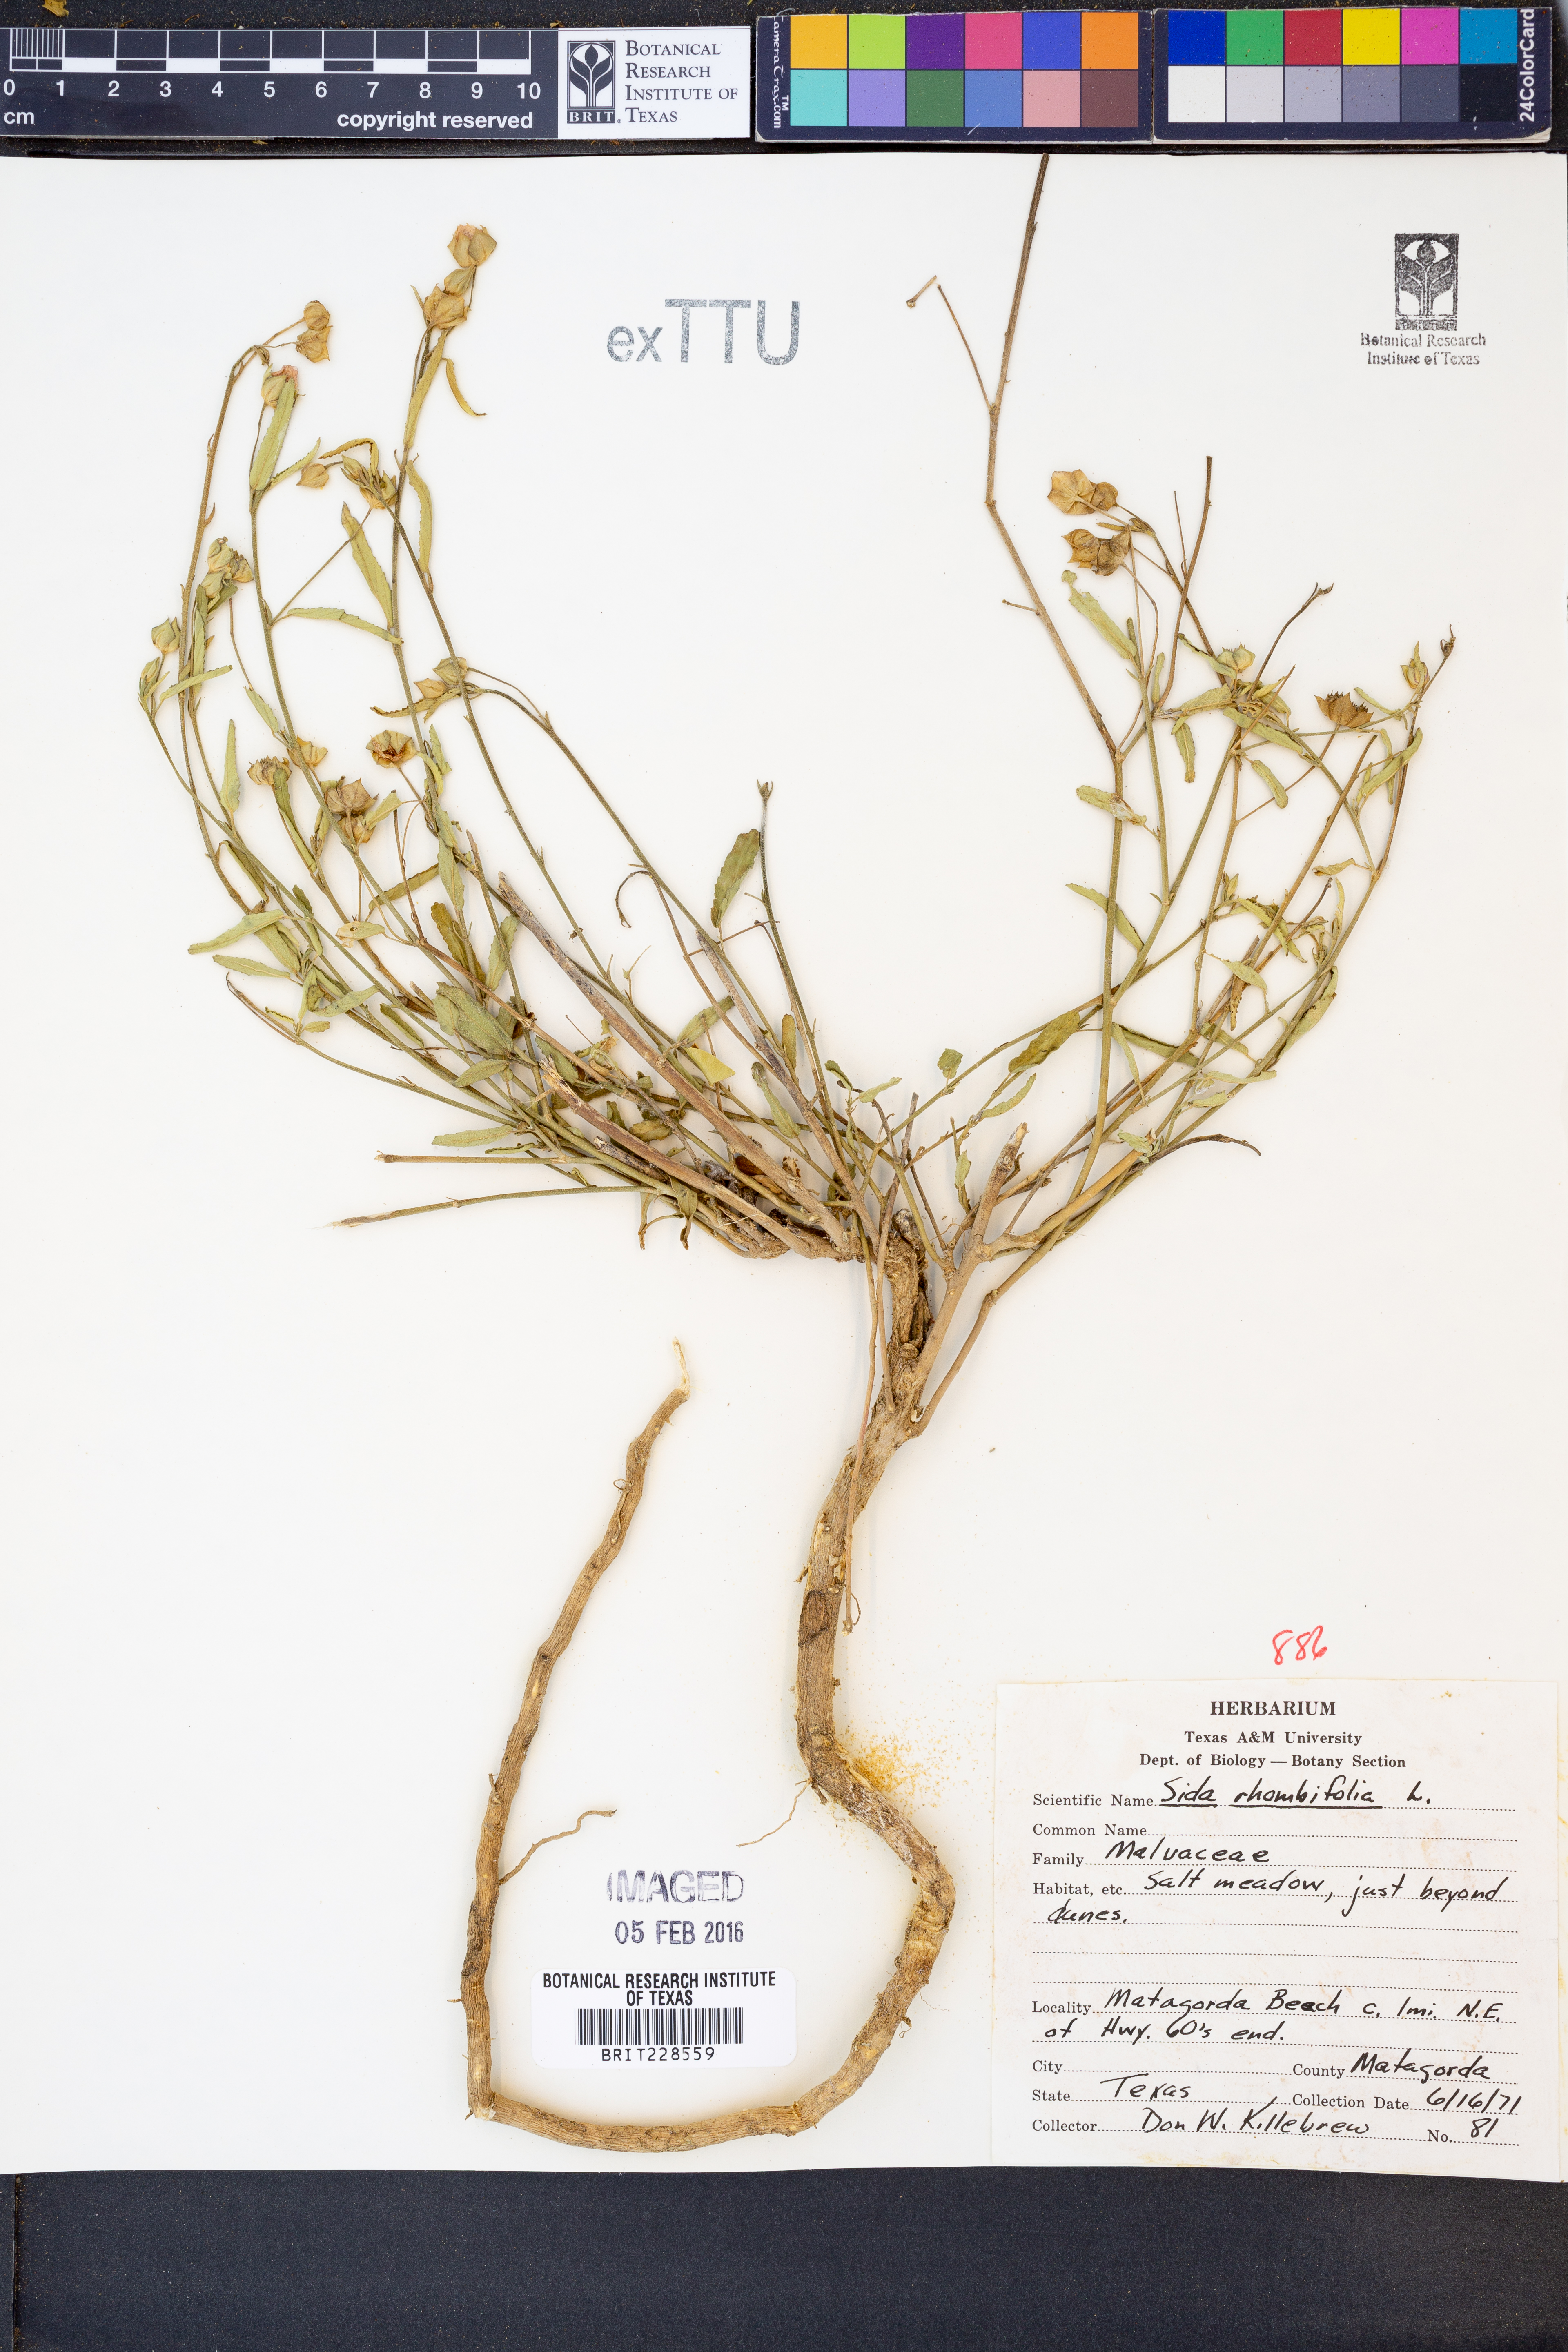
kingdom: Plantae
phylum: Tracheophyta
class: Magnoliopsida
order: Malvales
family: Malvaceae
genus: Sida
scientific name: Sida rhombifolia
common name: Queensland-hemp
